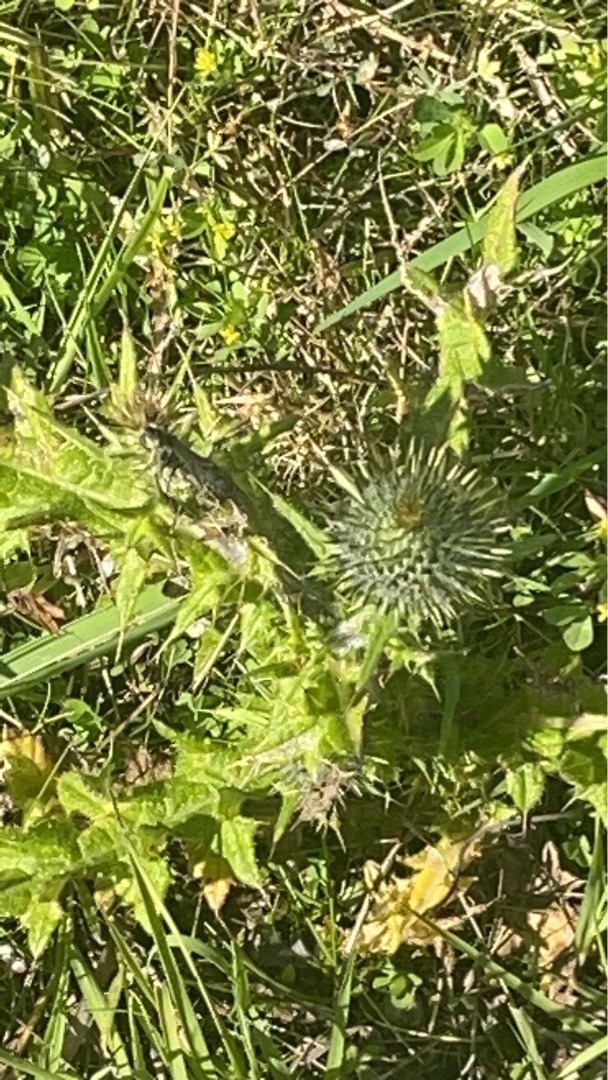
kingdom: Plantae
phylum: Tracheophyta
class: Magnoliopsida
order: Asterales
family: Asteraceae
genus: Cirsium
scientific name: Cirsium vulgare
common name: Horse-tidsel
